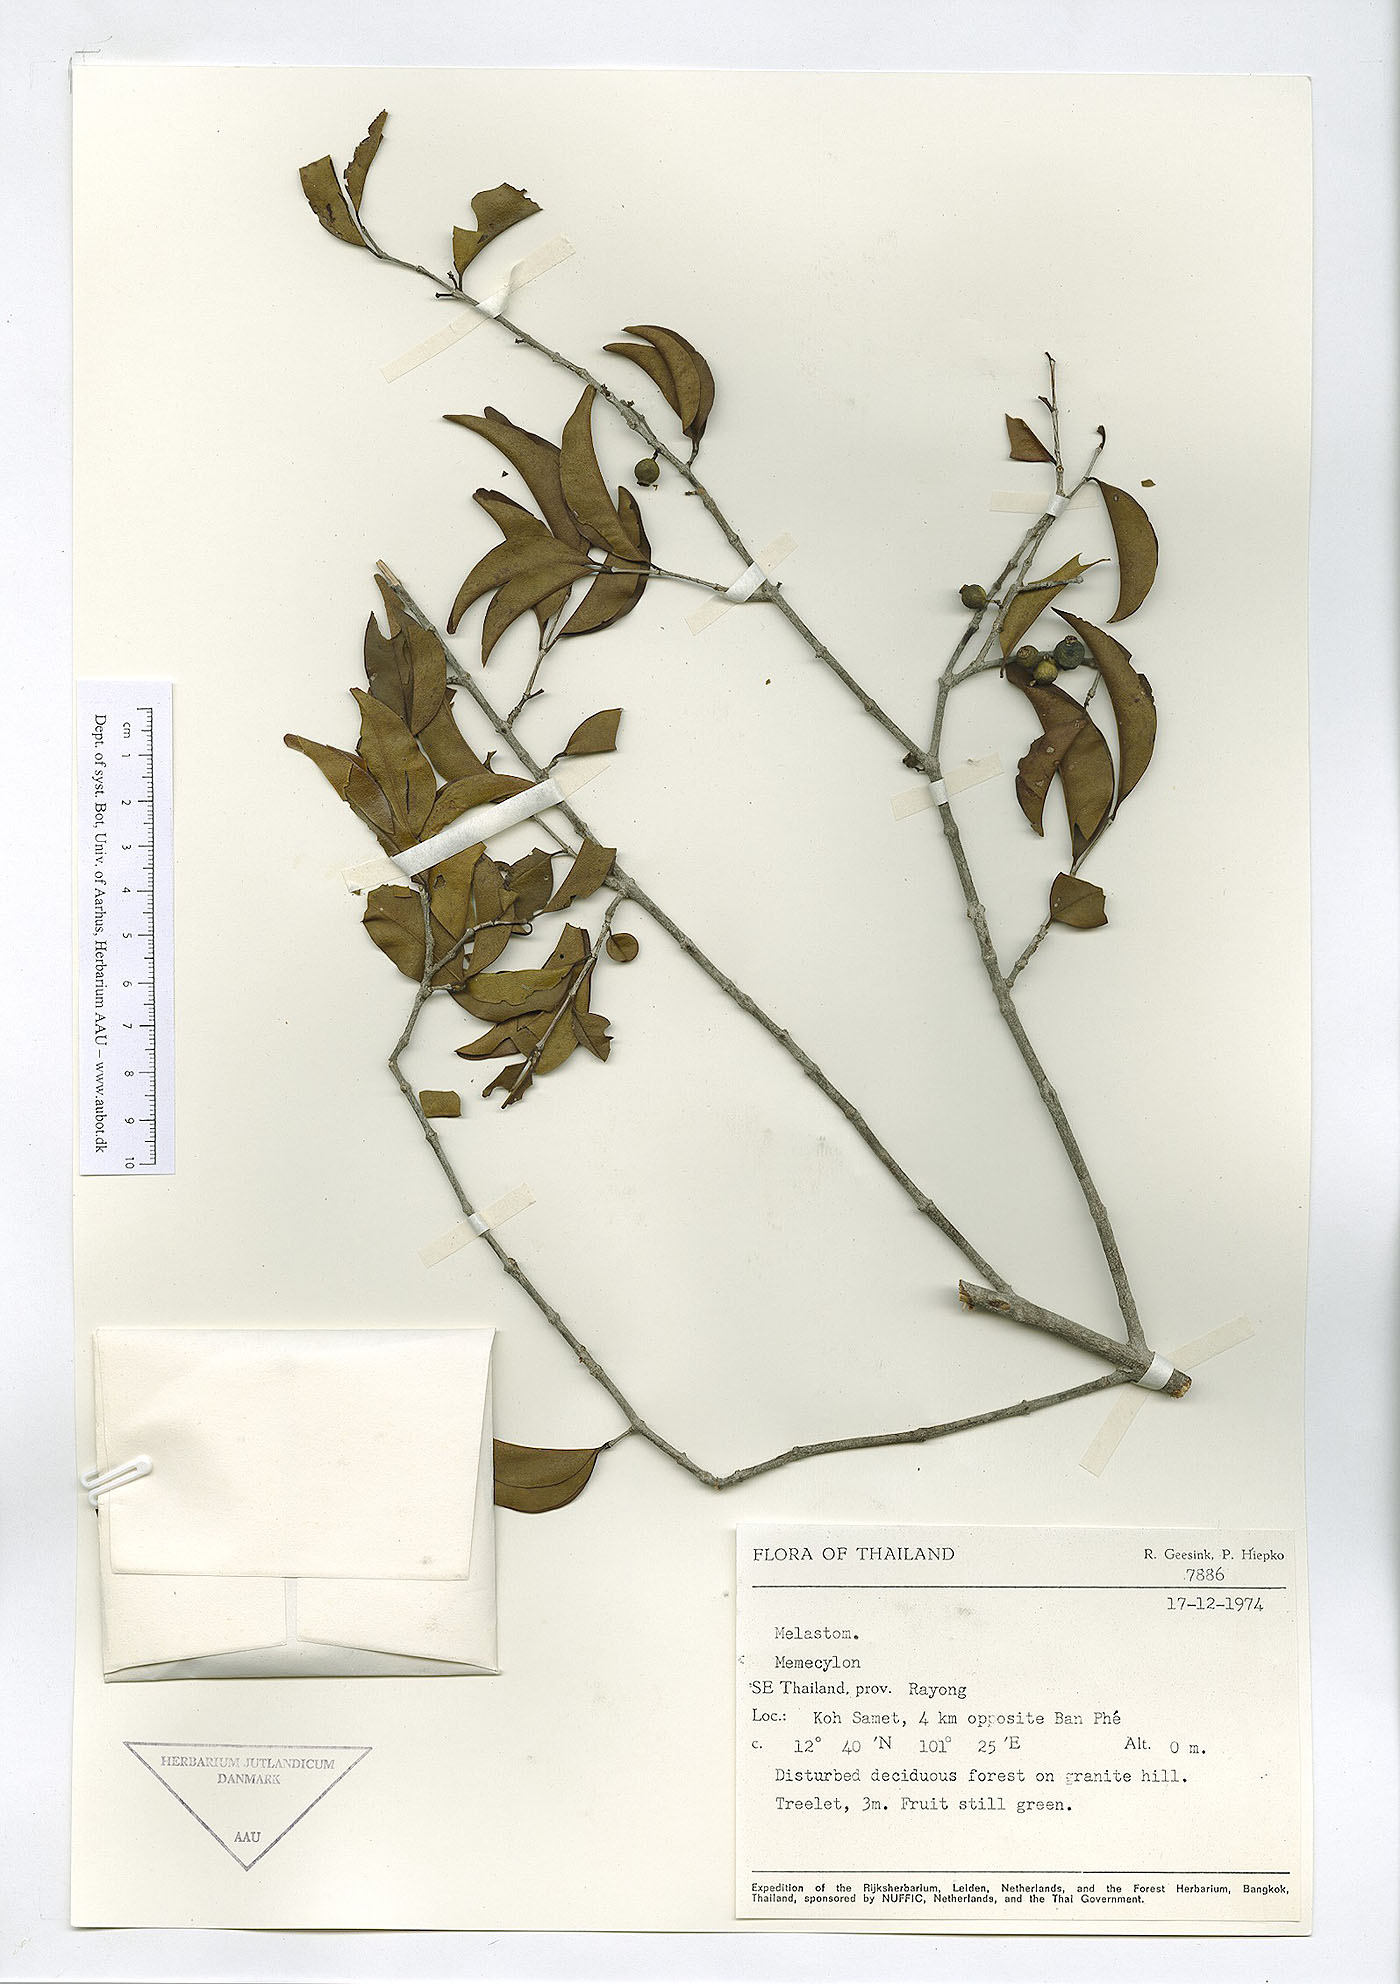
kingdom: Plantae
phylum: Tracheophyta
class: Magnoliopsida
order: Myrtales
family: Melastomataceae
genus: Memecylon
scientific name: Memecylon scutellatum
